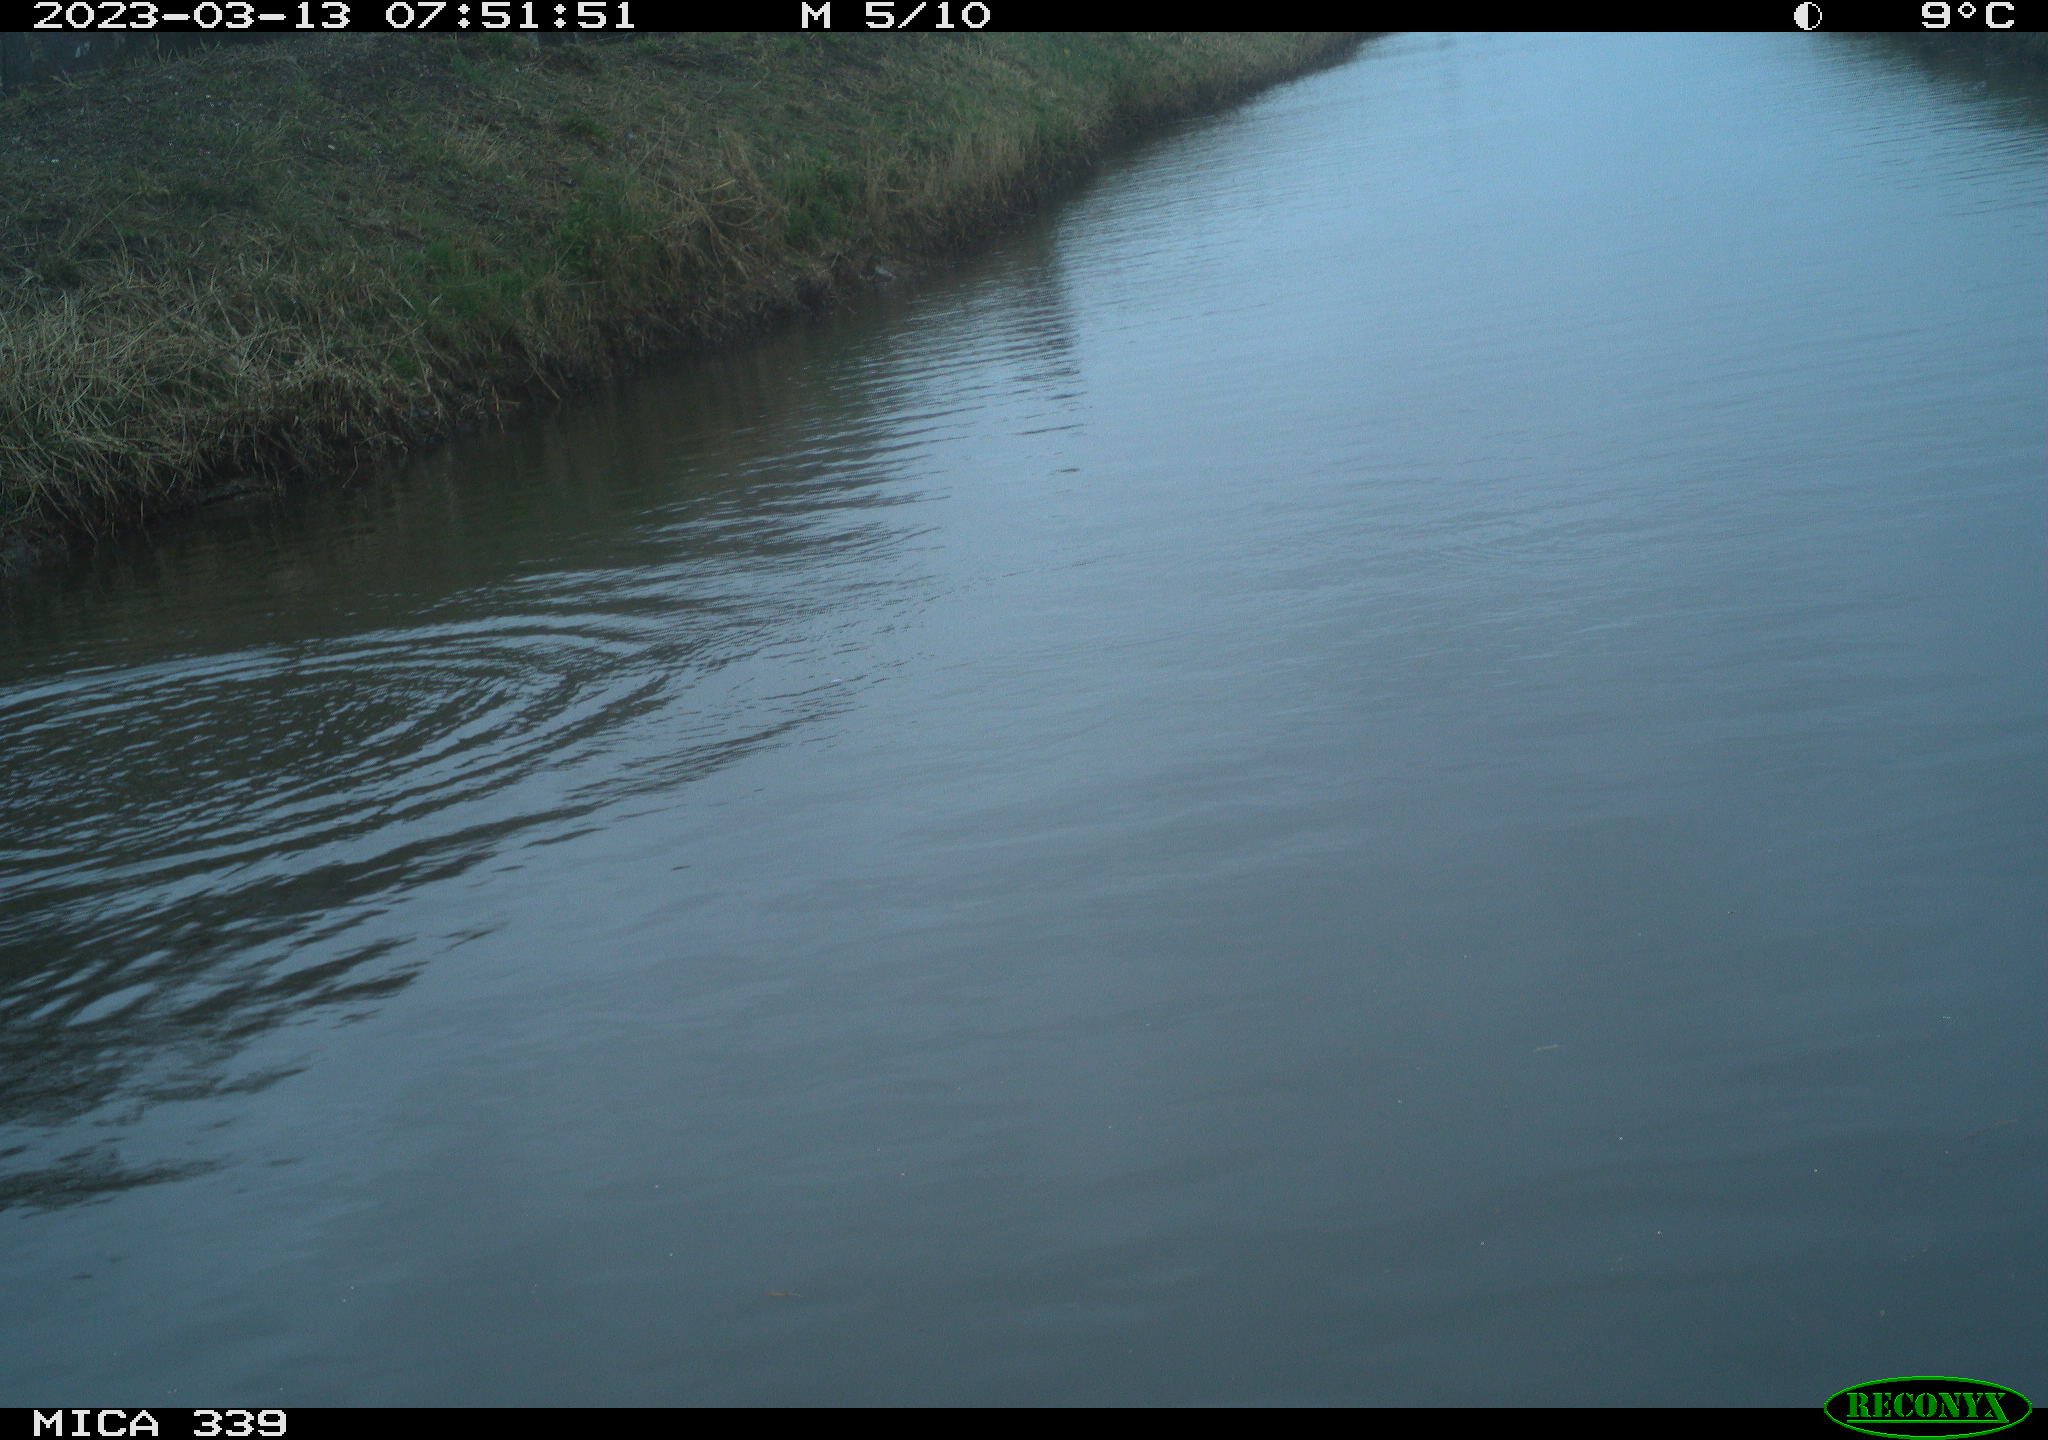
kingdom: Animalia
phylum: Chordata
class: Aves
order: Anseriformes
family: Anatidae
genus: Anas
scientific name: Anas
